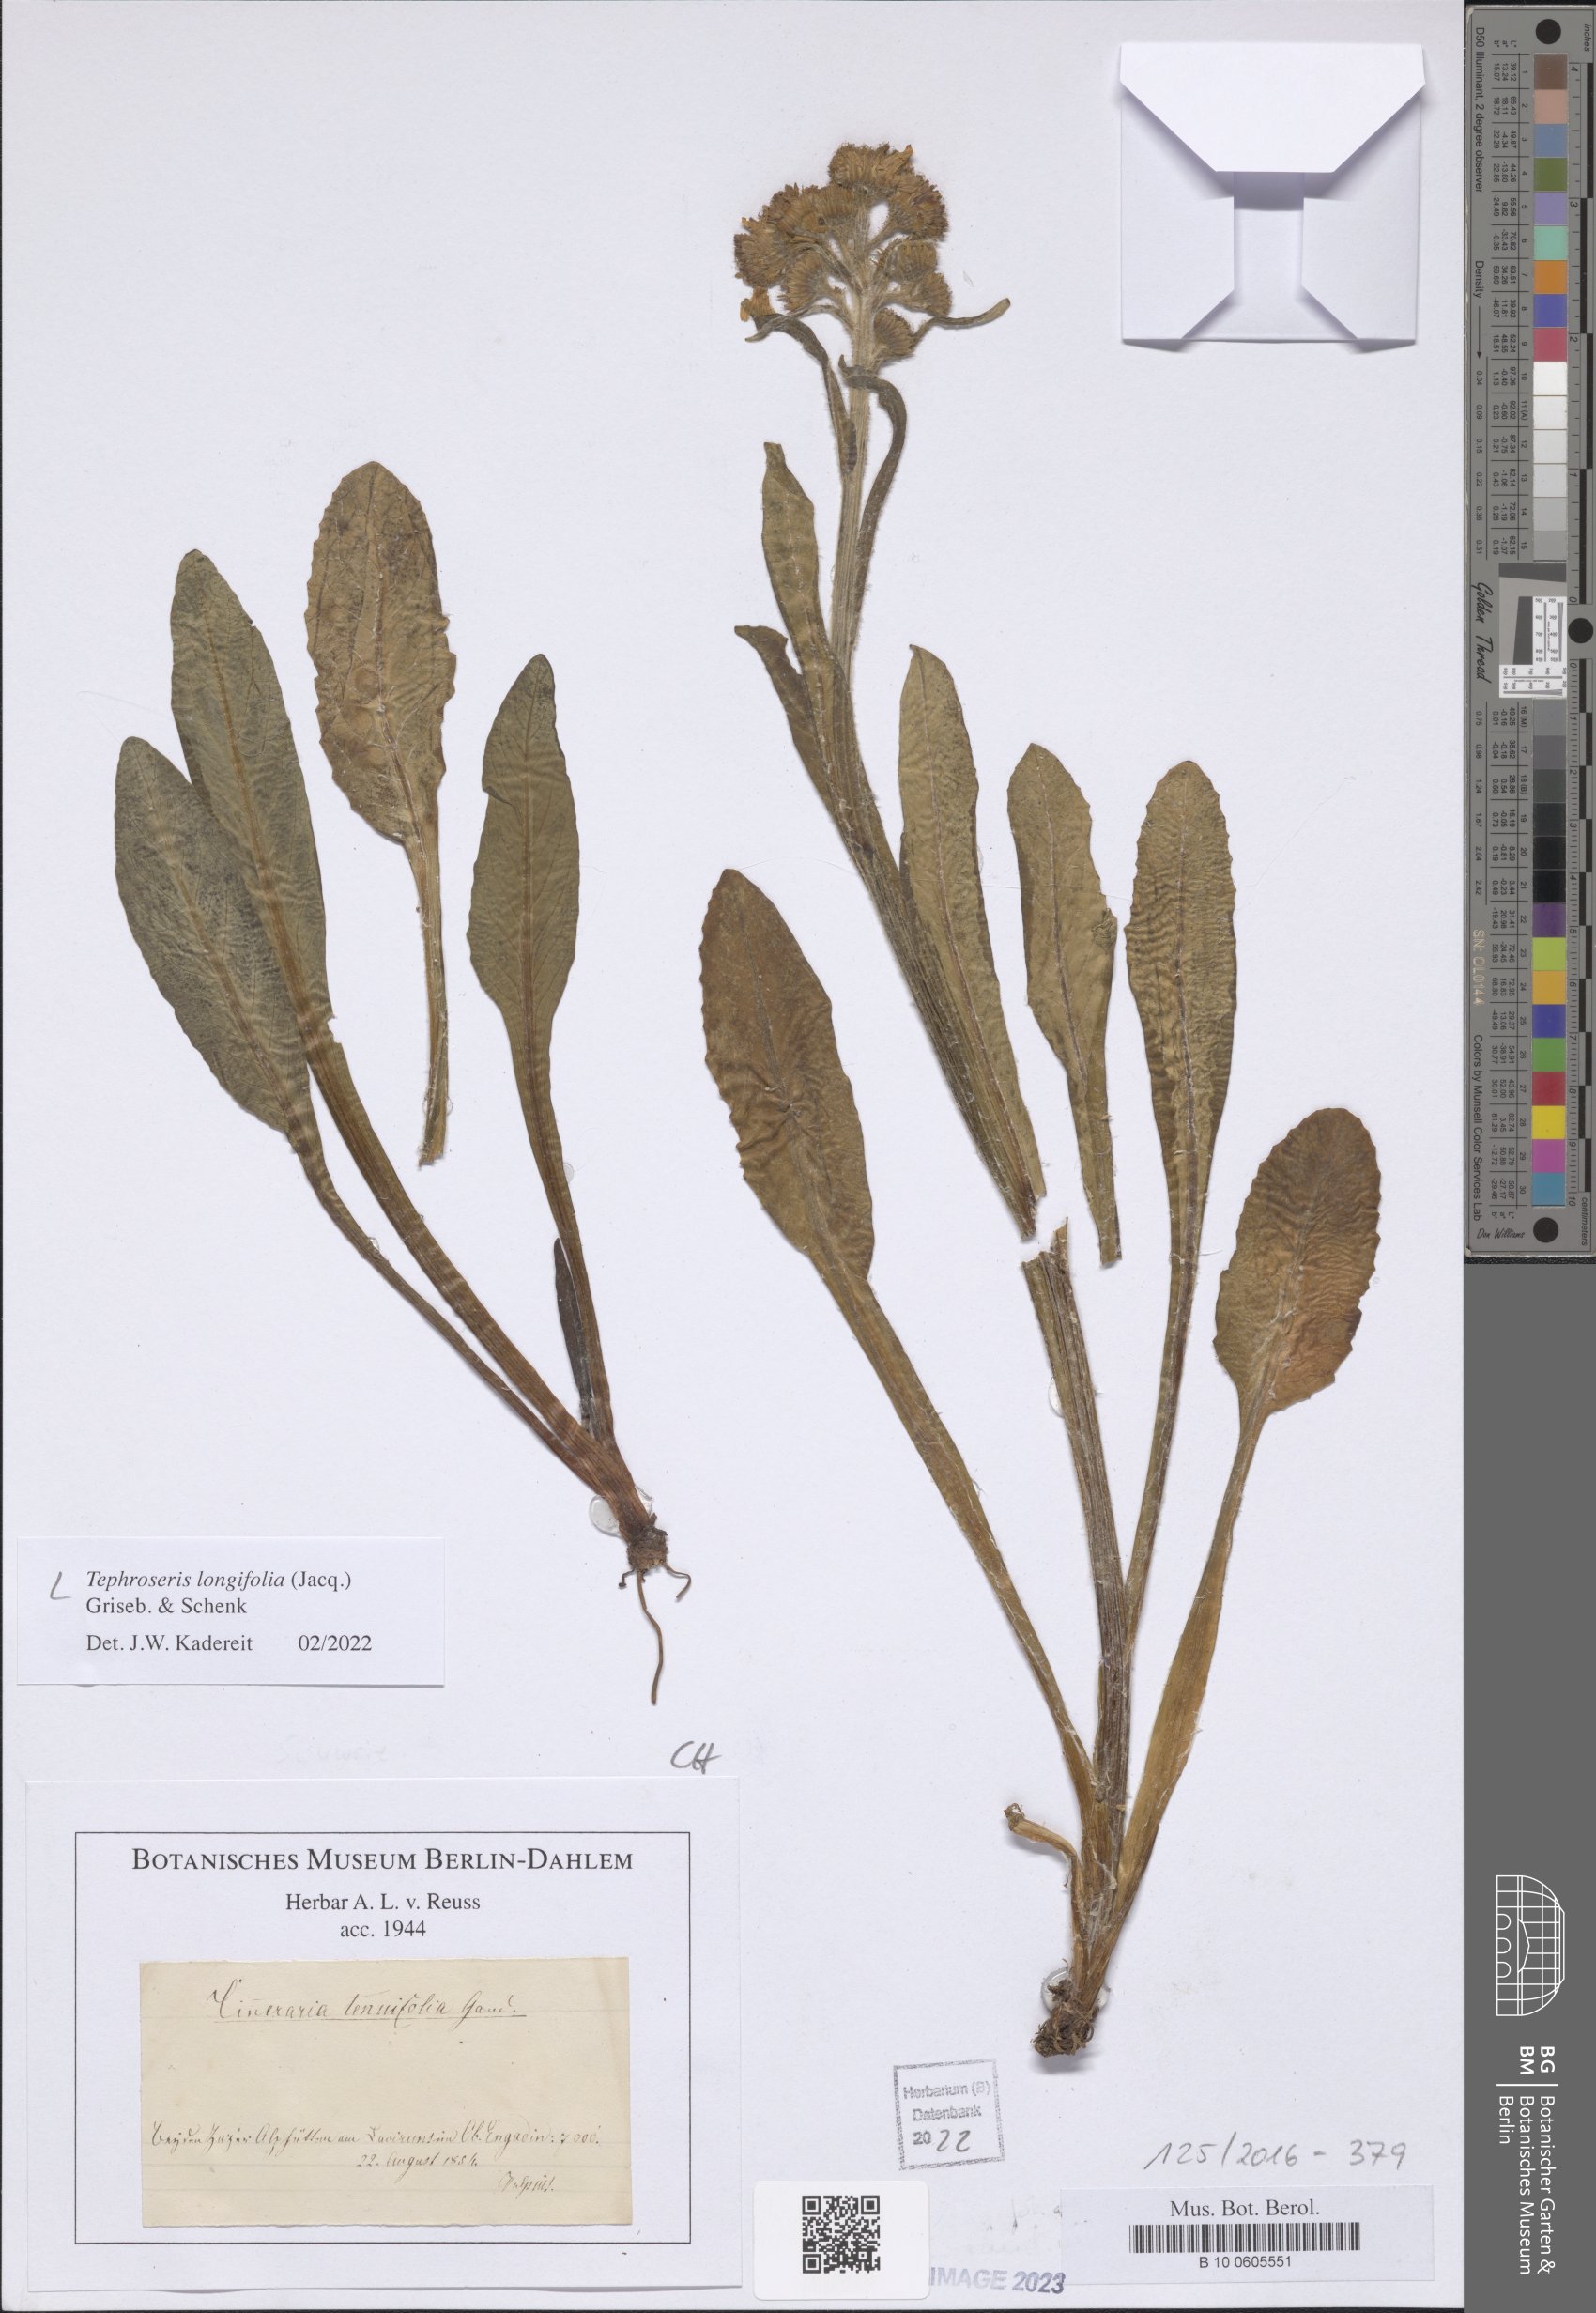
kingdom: Plantae
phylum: Tracheophyta
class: Magnoliopsida
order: Asterales
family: Asteraceae
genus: Tephroseris
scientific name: Tephroseris longifolia
